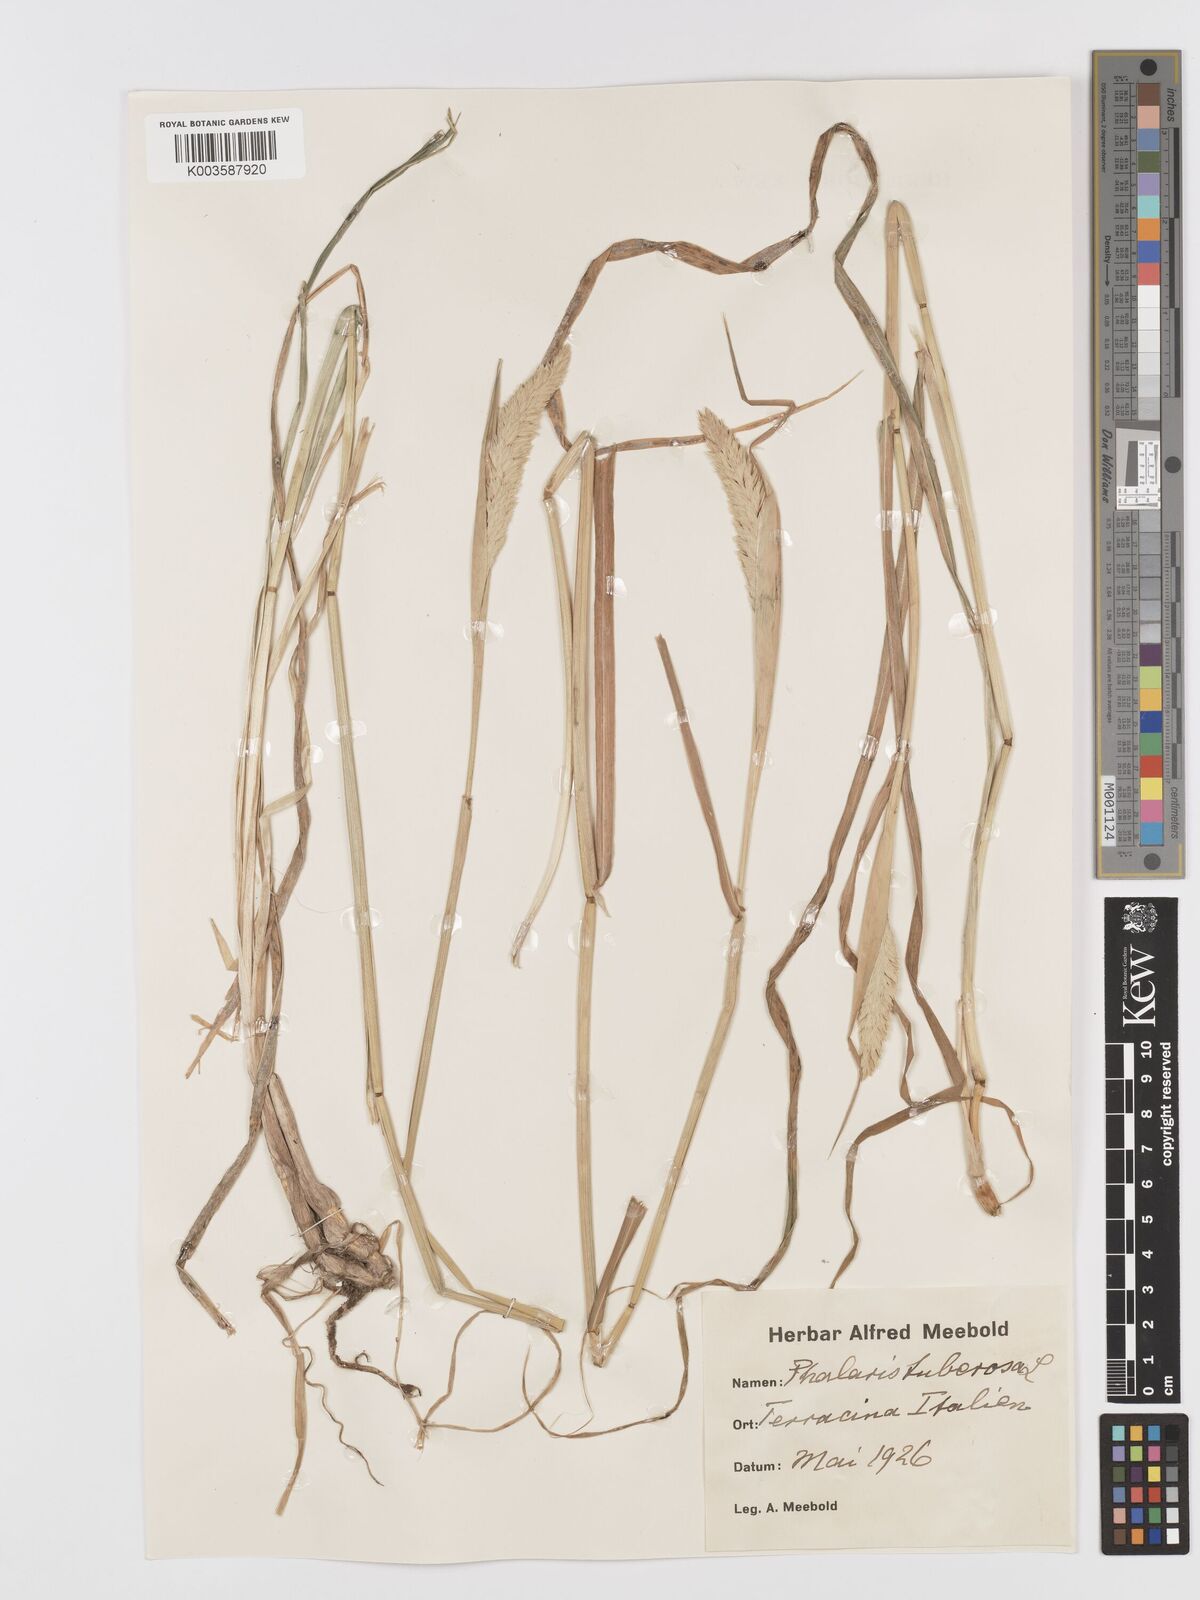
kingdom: Plantae
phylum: Tracheophyta
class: Liliopsida
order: Poales
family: Poaceae
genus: Phalaris
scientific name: Phalaris
